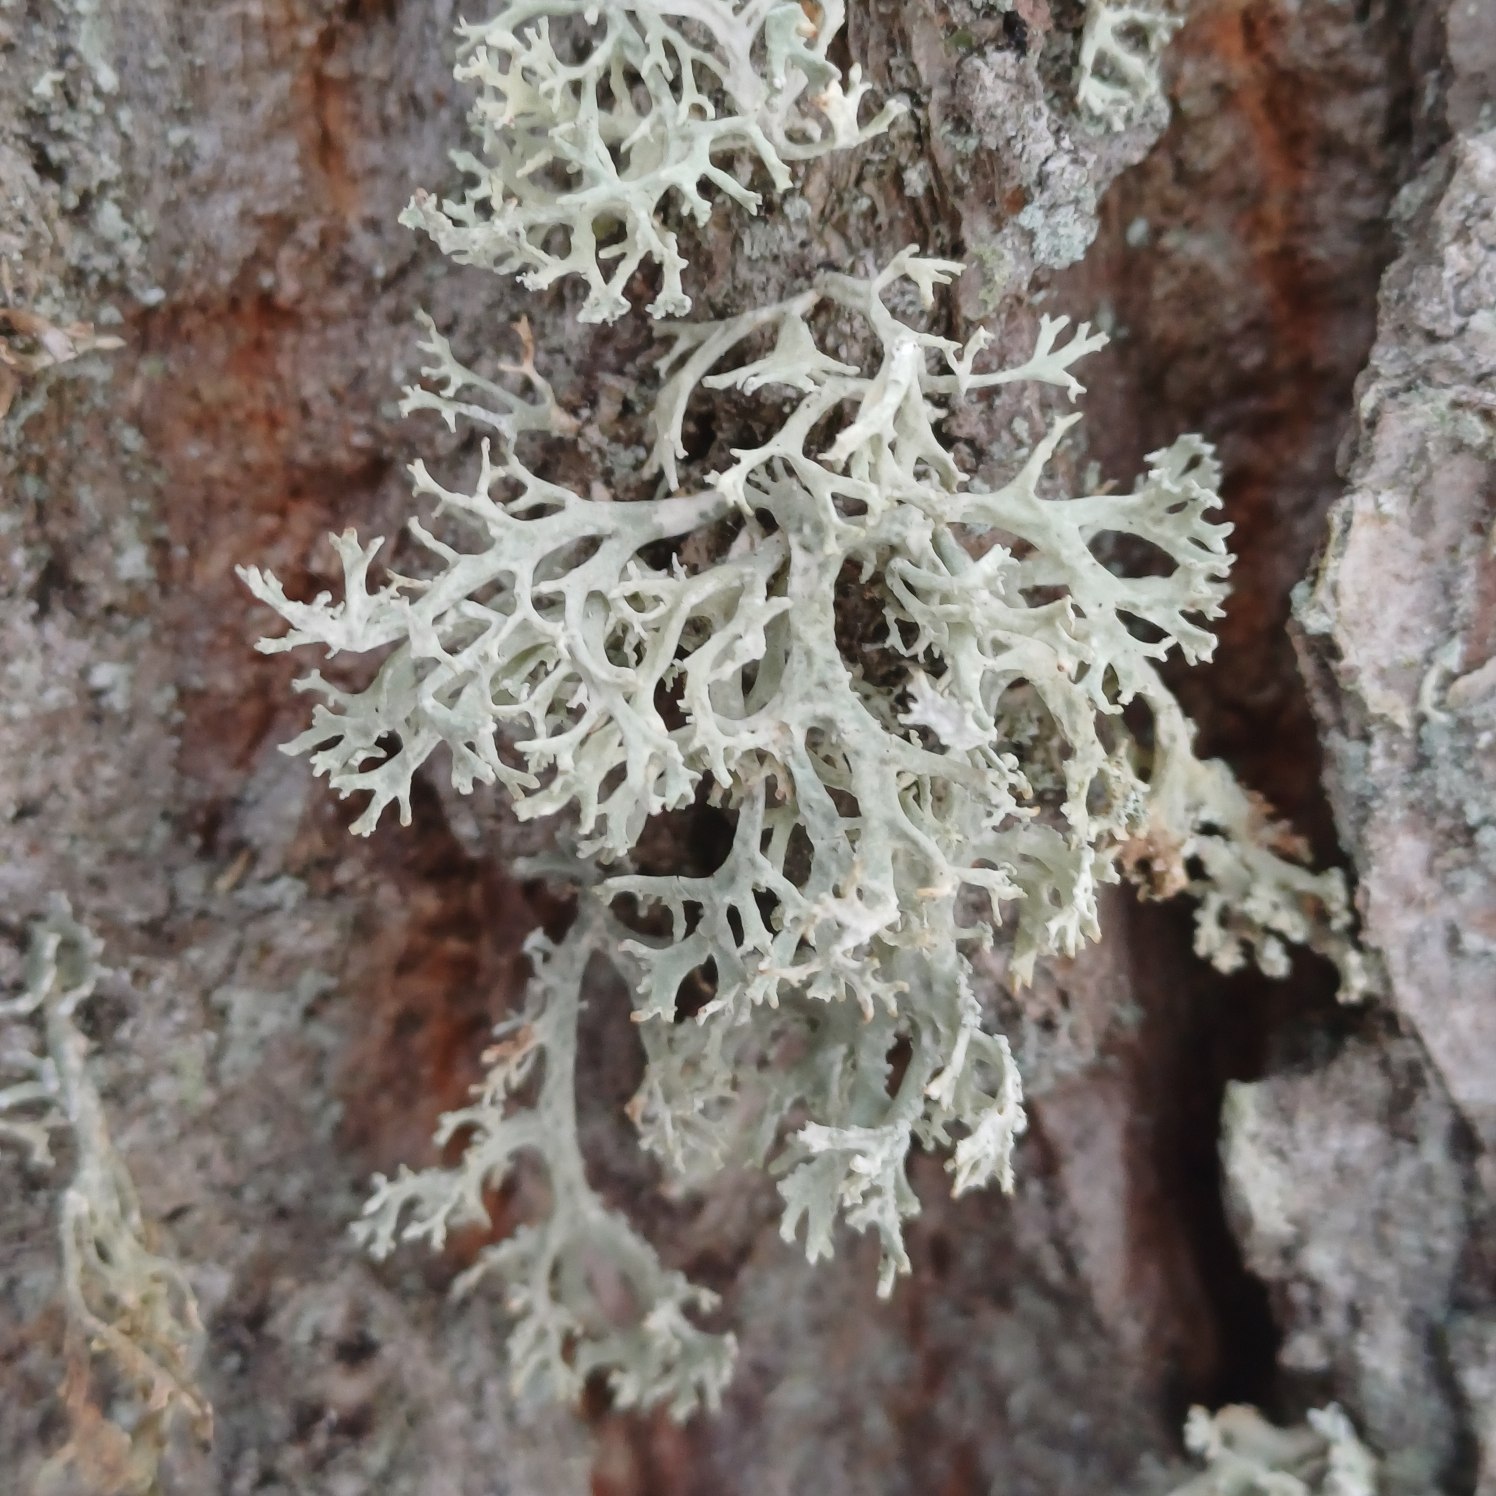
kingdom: Fungi
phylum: Ascomycota
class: Lecanoromycetes
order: Lecanorales
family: Parmeliaceae
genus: Evernia
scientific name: Evernia prunastri
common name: Almindelig slåenlav
